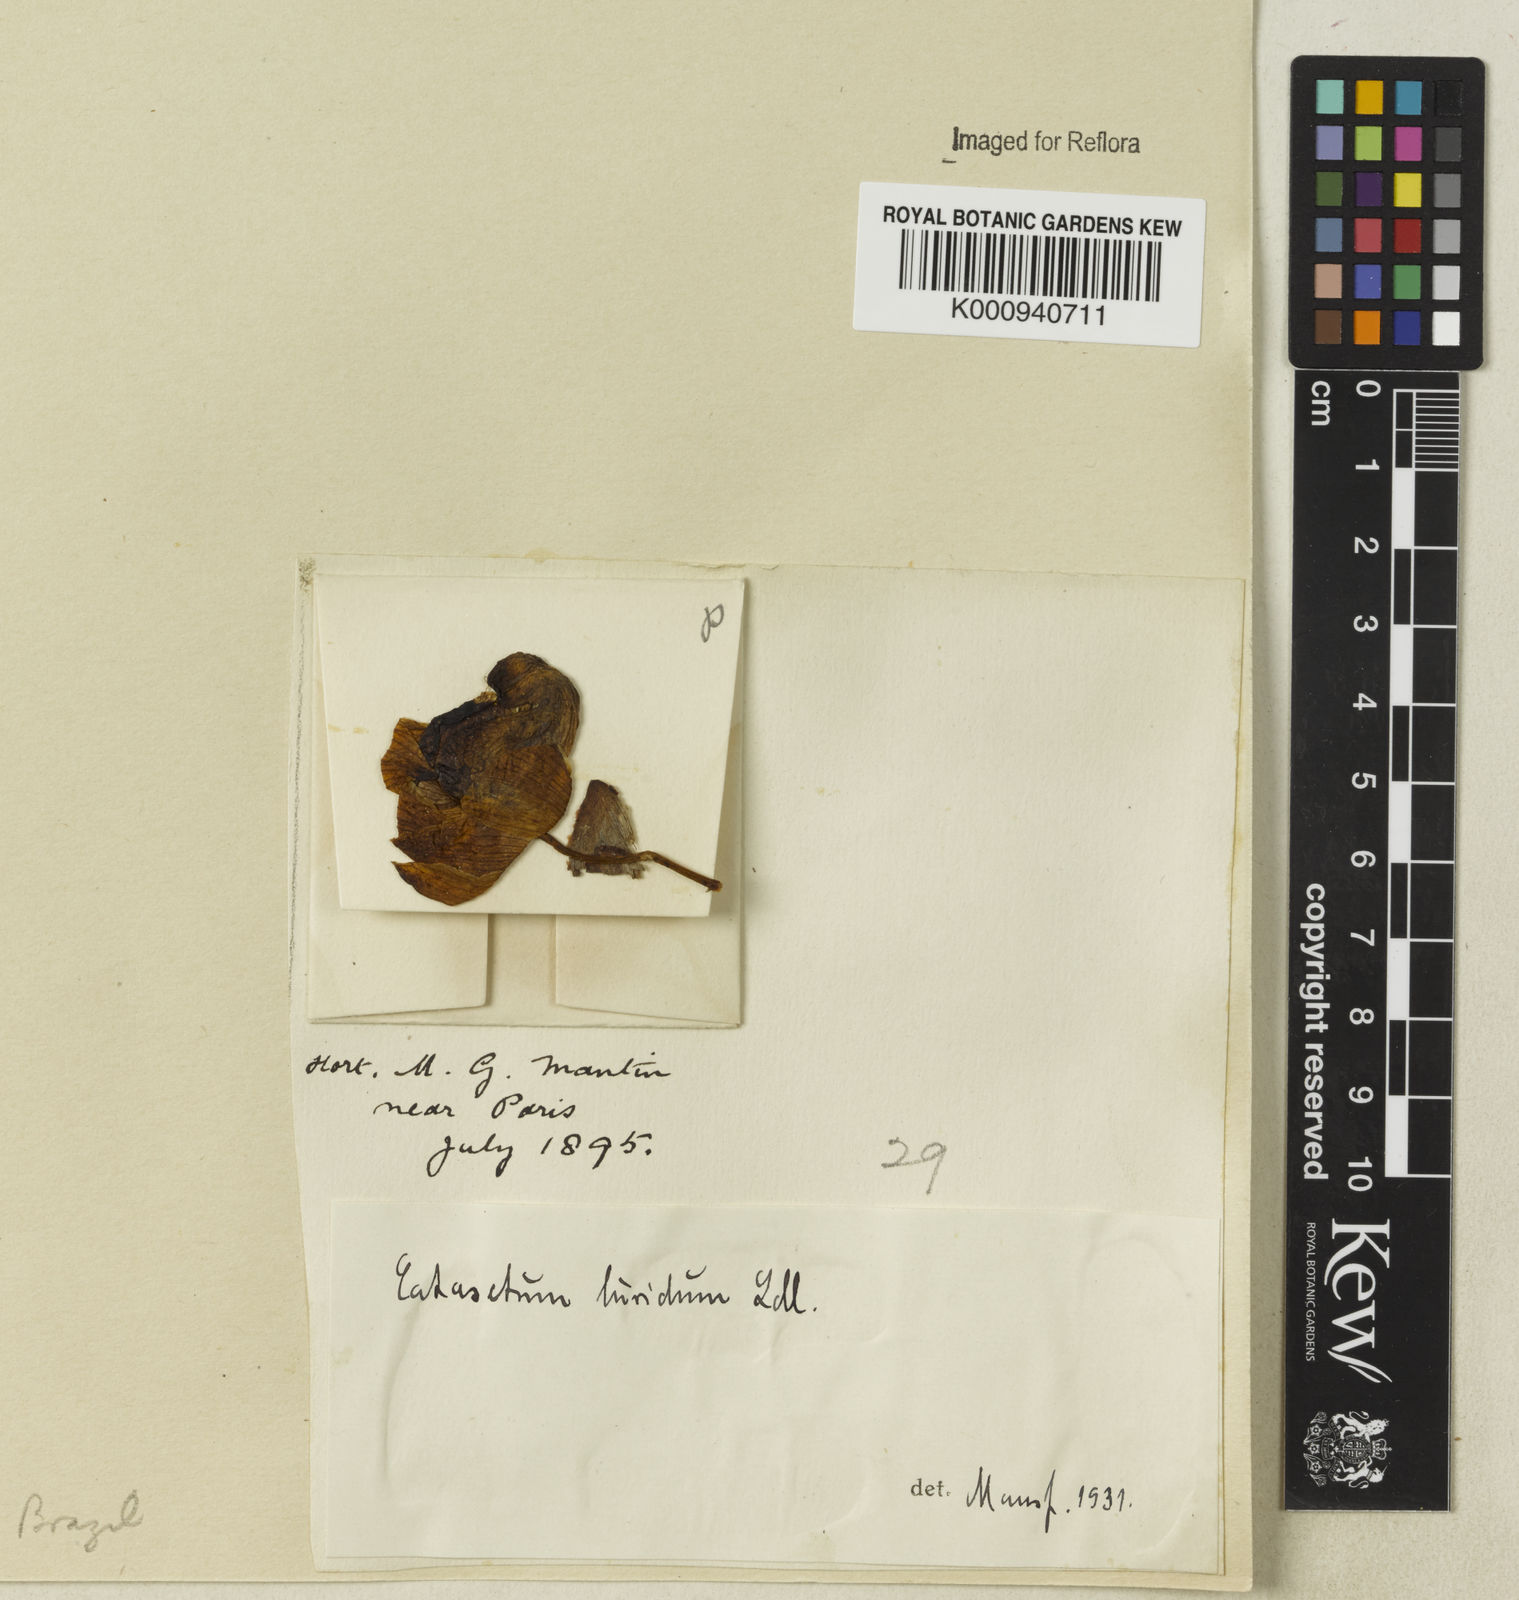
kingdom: Plantae
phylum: Tracheophyta
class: Liliopsida
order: Asparagales
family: Orchidaceae
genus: Catasetum
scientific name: Catasetum luridum
